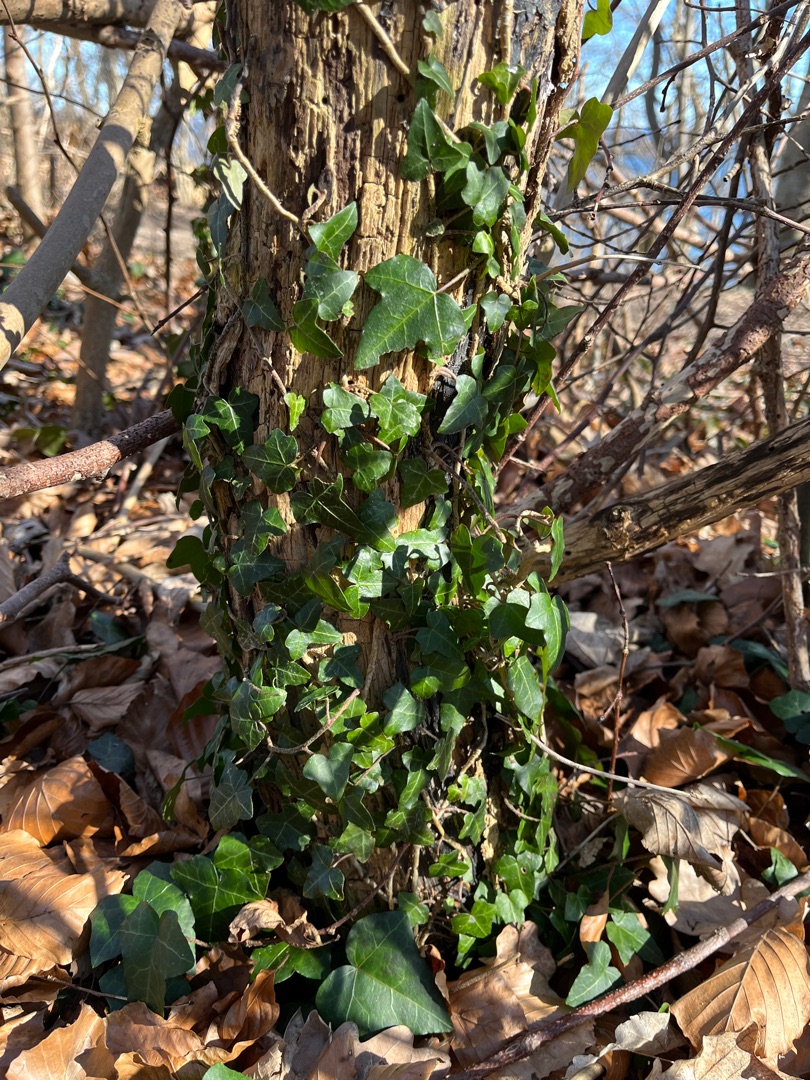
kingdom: Plantae
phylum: Tracheophyta
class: Magnoliopsida
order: Apiales
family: Araliaceae
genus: Hedera
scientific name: Hedera helix
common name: Vedbend
